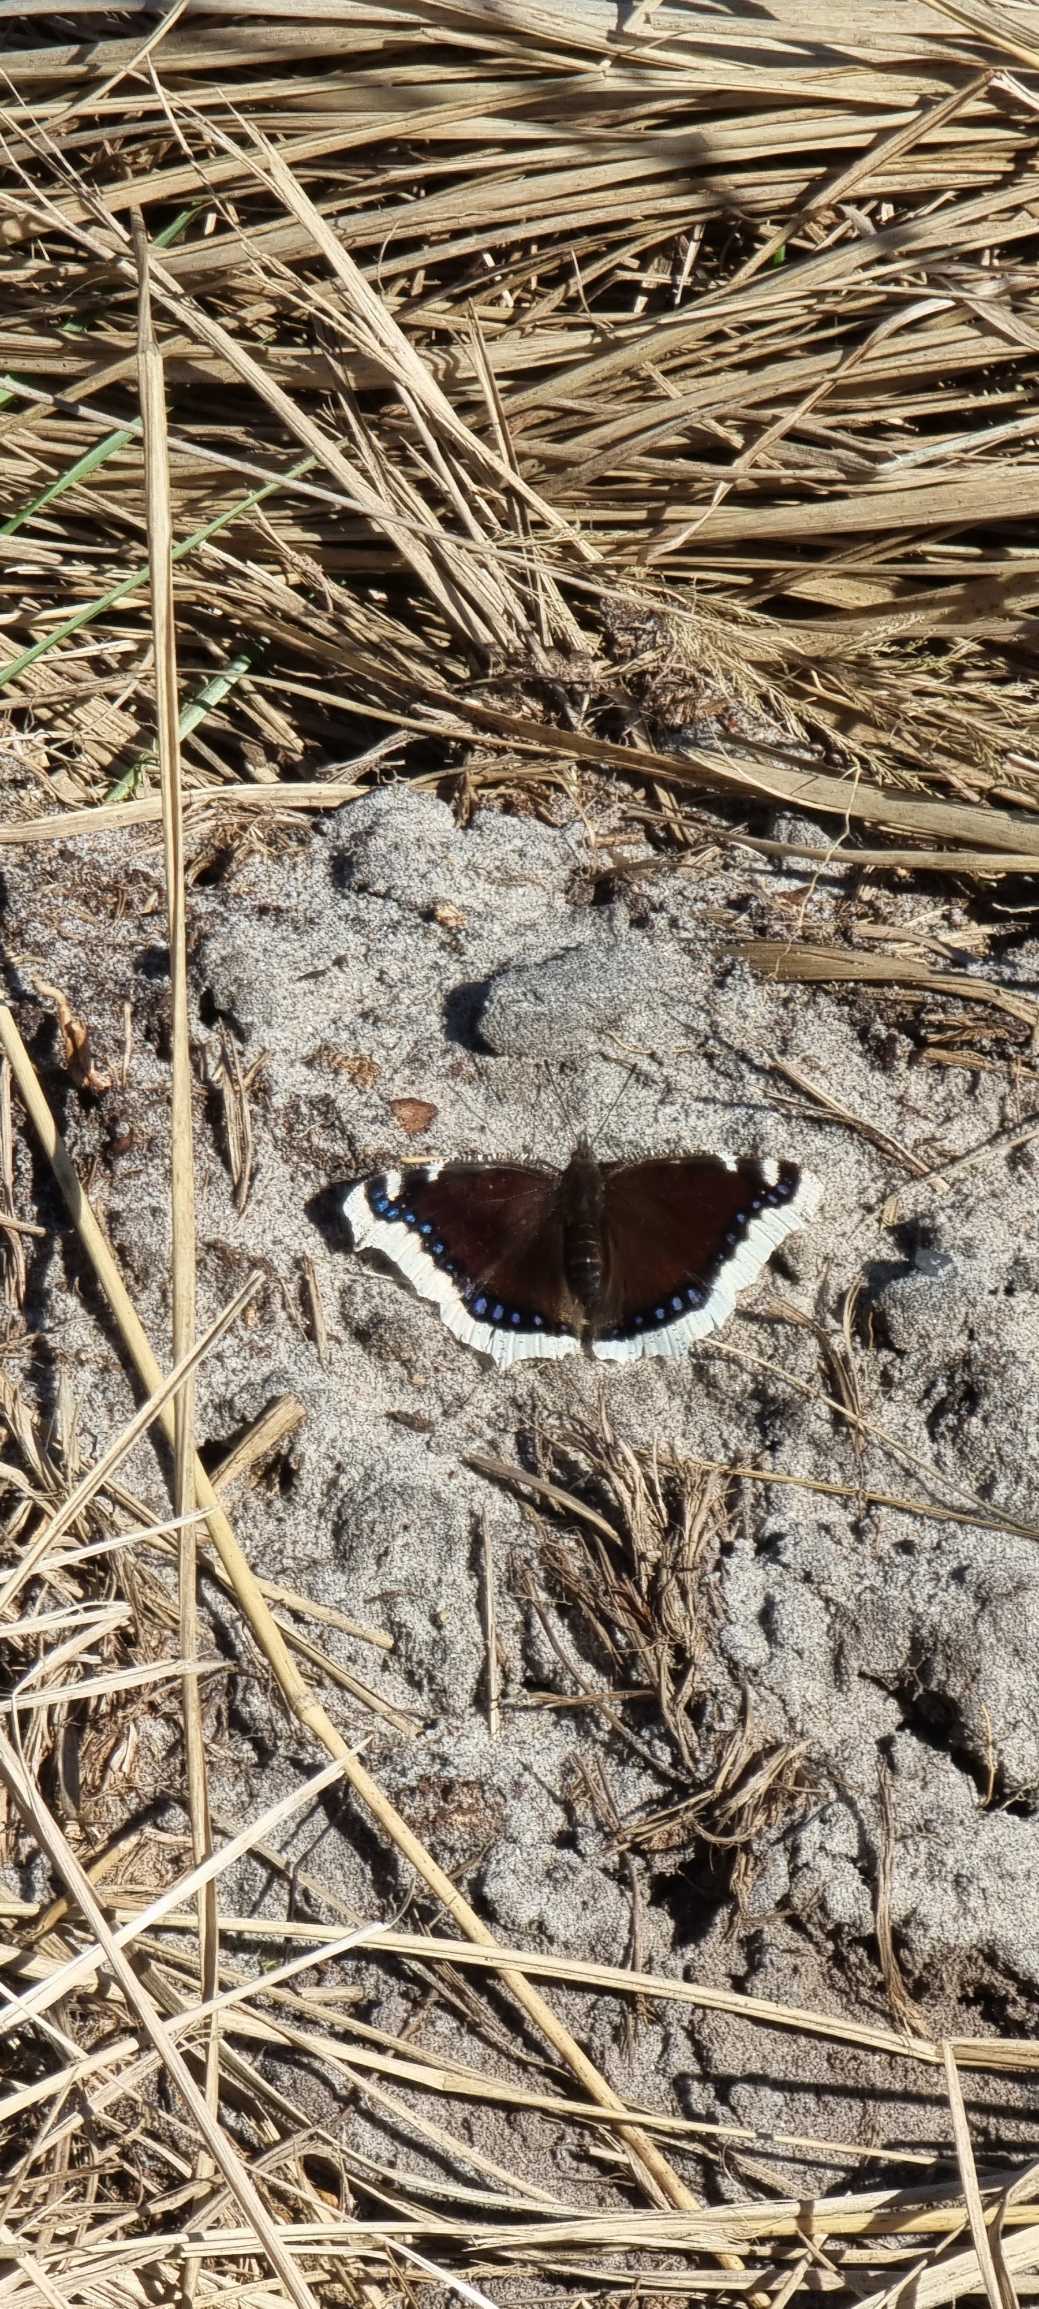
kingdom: Animalia
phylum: Arthropoda
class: Insecta
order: Lepidoptera
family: Nymphalidae
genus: Nymphalis
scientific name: Nymphalis antiopa
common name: Sørgekåbe
